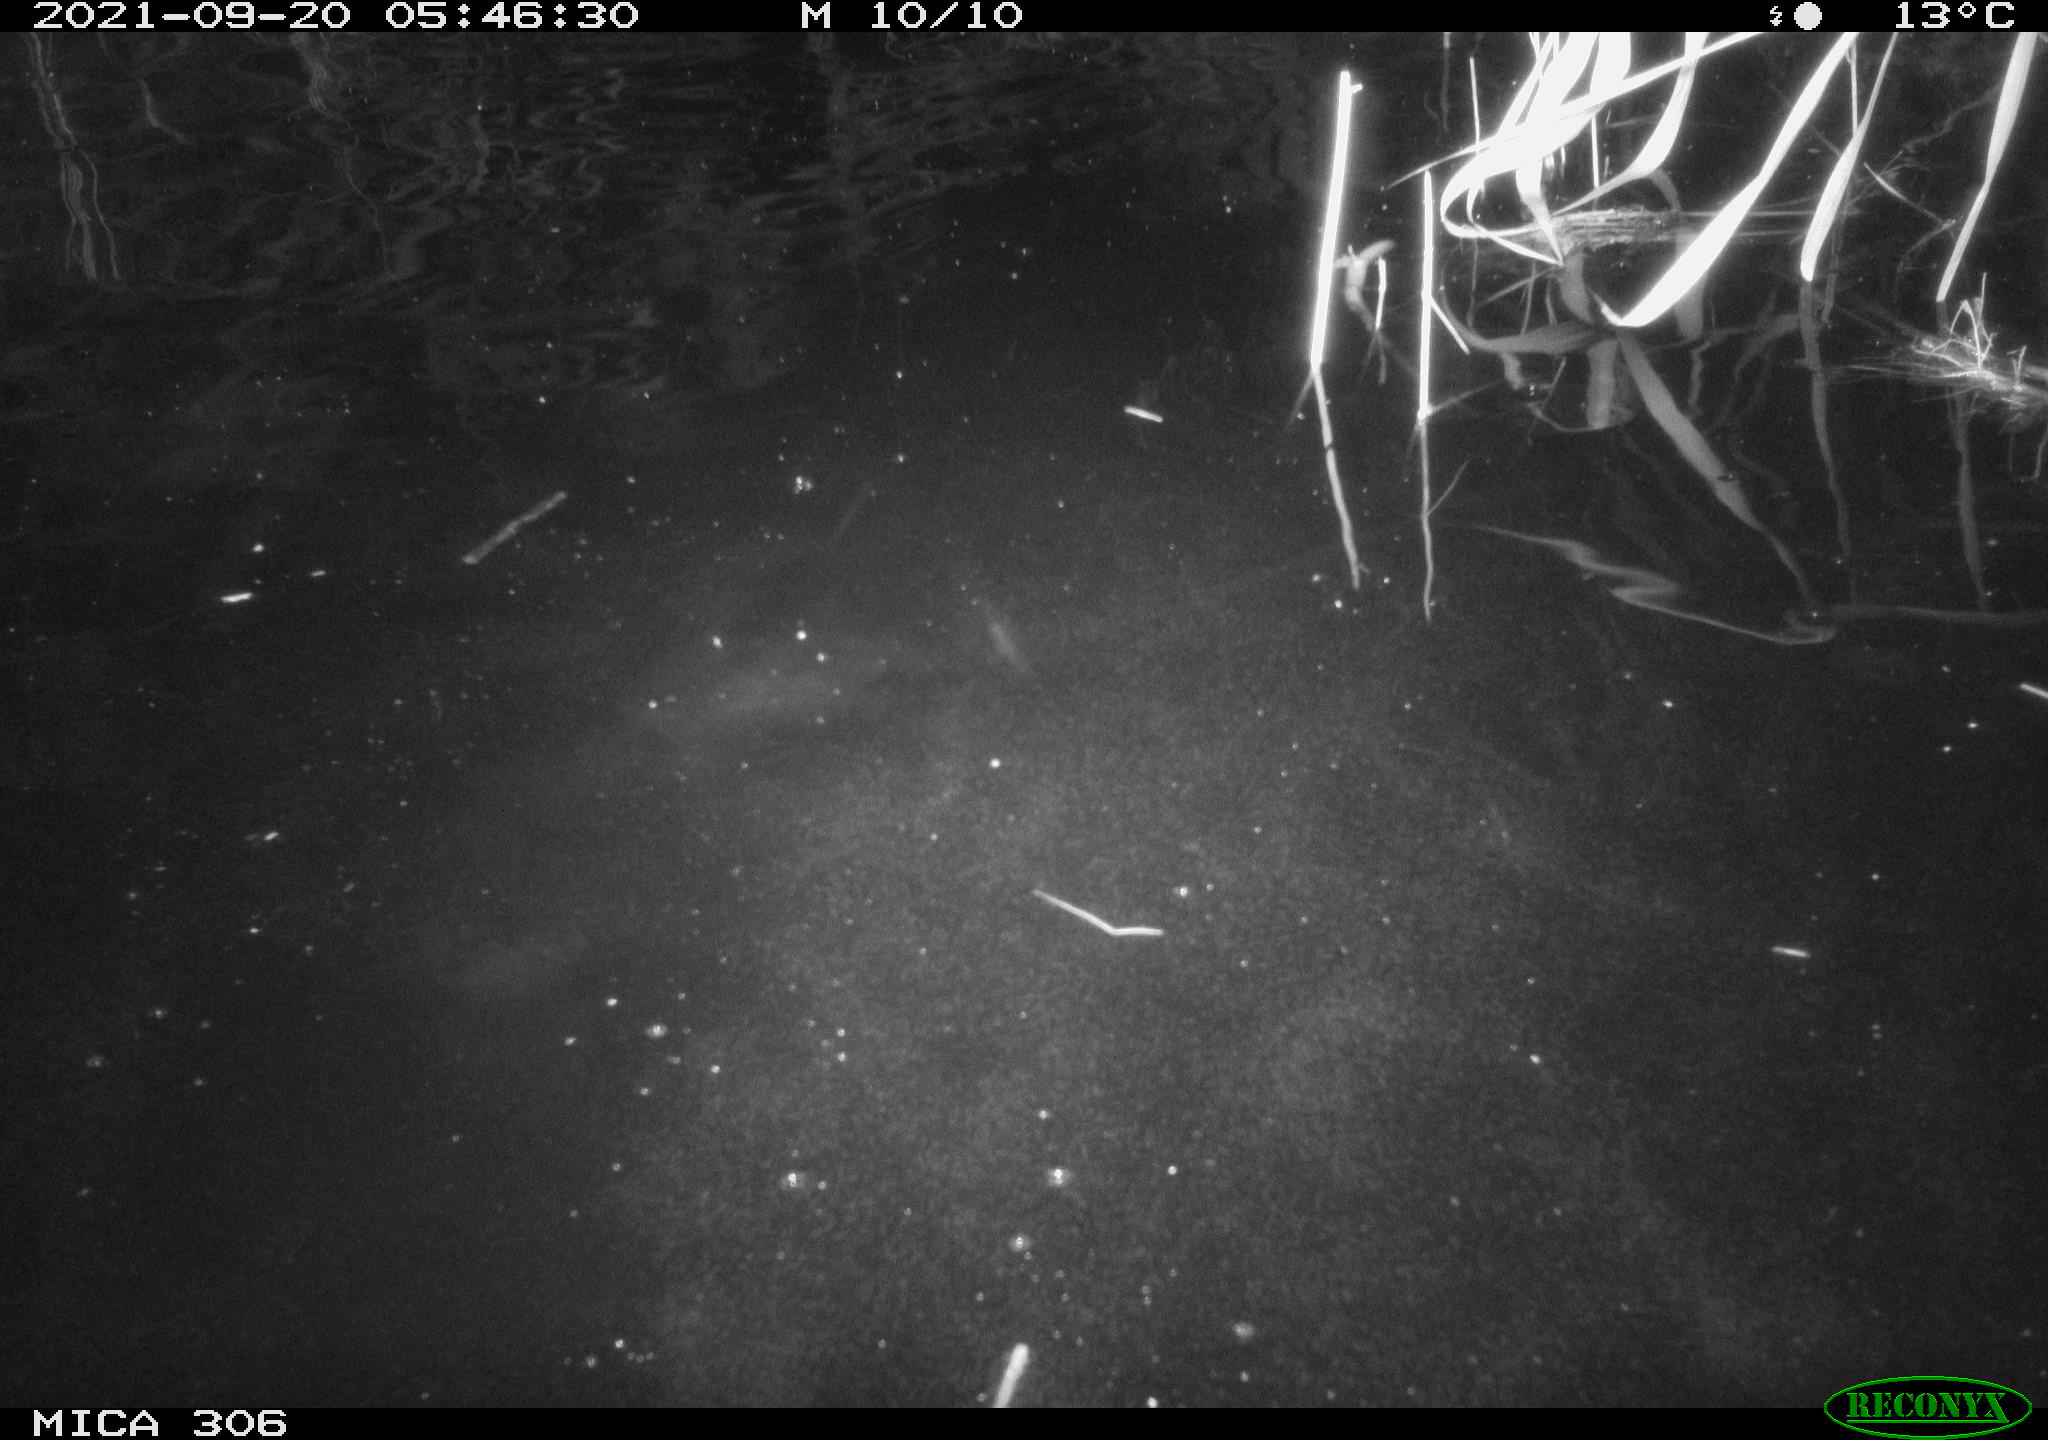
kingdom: Animalia
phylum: Chordata
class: Mammalia
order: Rodentia
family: Cricetidae
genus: Ondatra
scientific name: Ondatra zibethicus
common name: Muskrat
